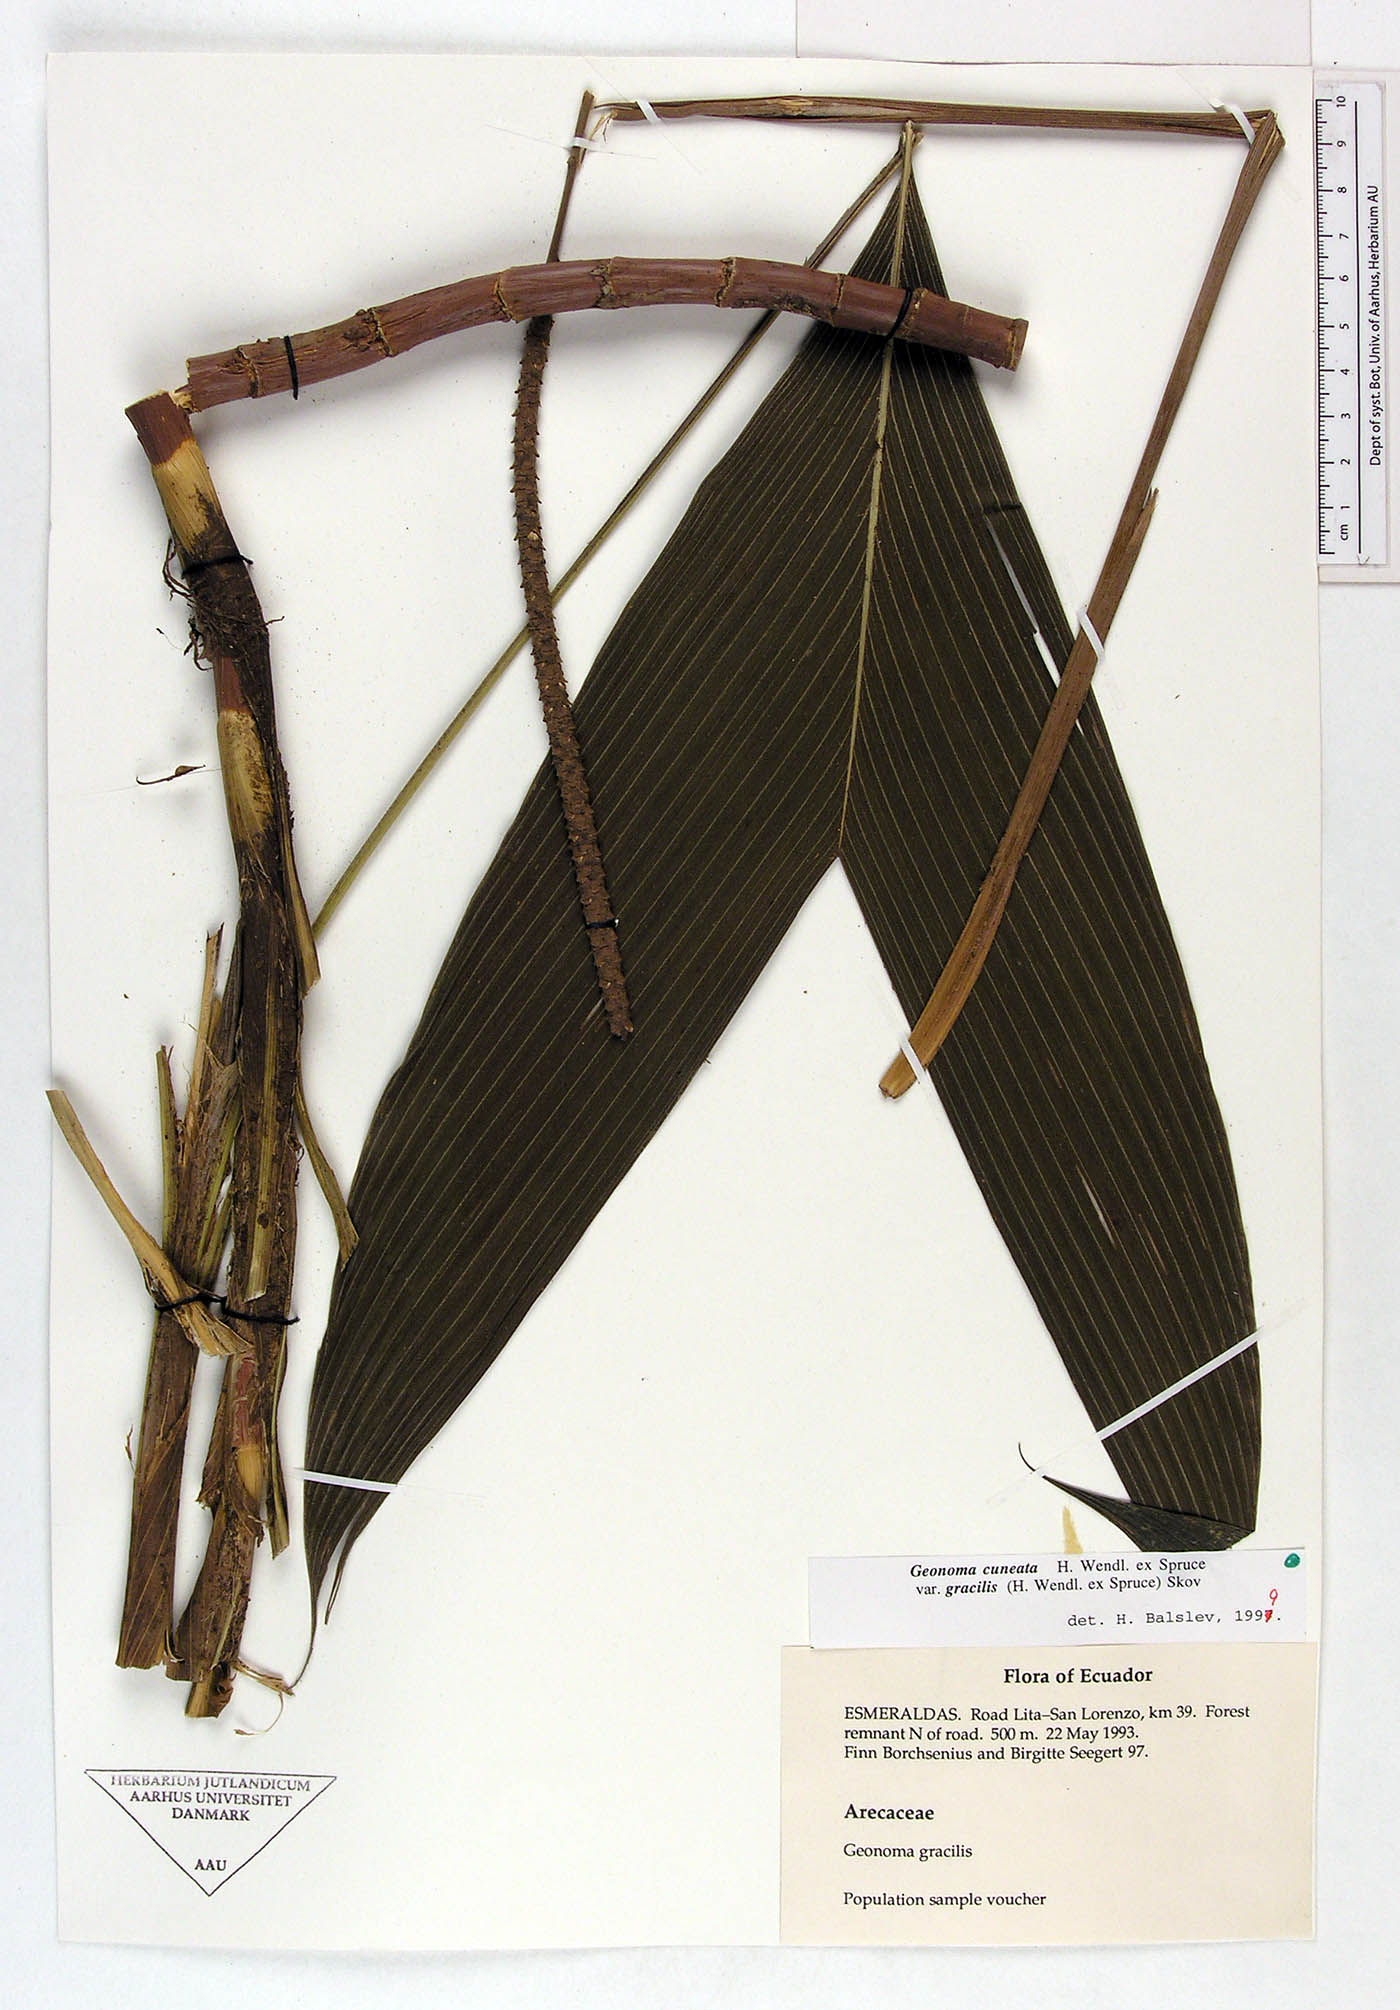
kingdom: Plantae
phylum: Tracheophyta
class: Liliopsida
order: Arecales
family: Arecaceae
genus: Geonoma
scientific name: Geonoma cuneata
